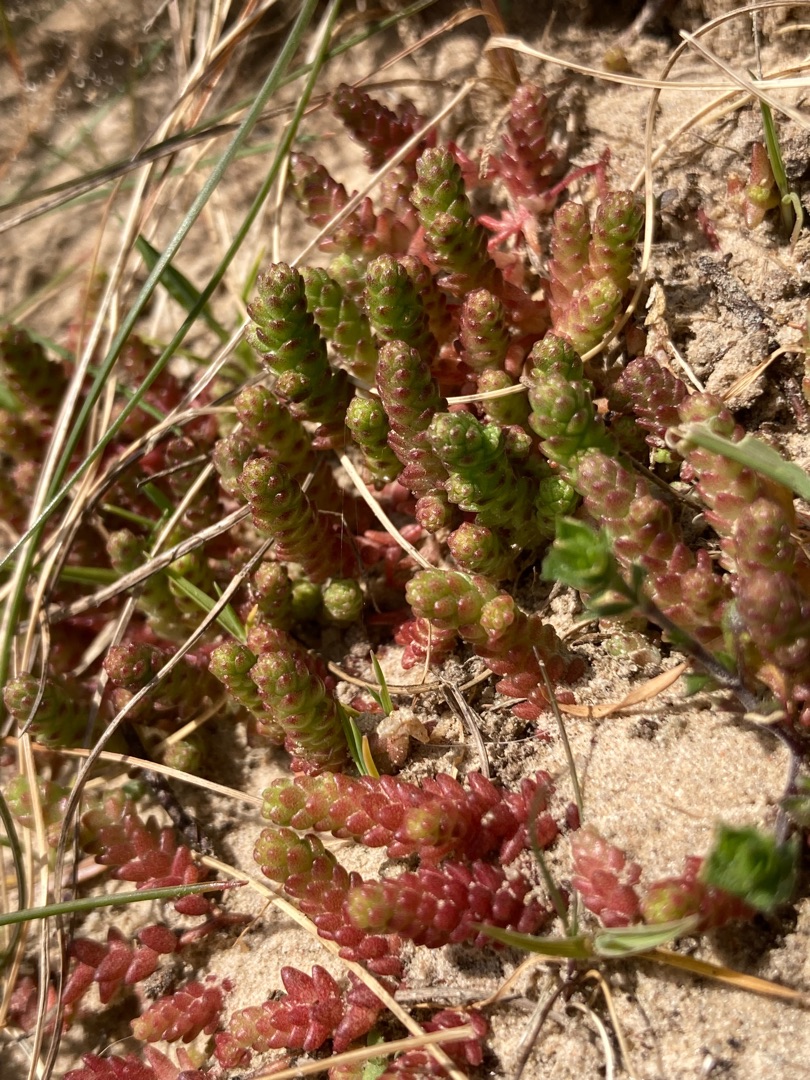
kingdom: Plantae
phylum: Tracheophyta
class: Magnoliopsida
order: Saxifragales
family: Crassulaceae
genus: Sedum
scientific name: Sedum acre
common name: Bidende stenurt
